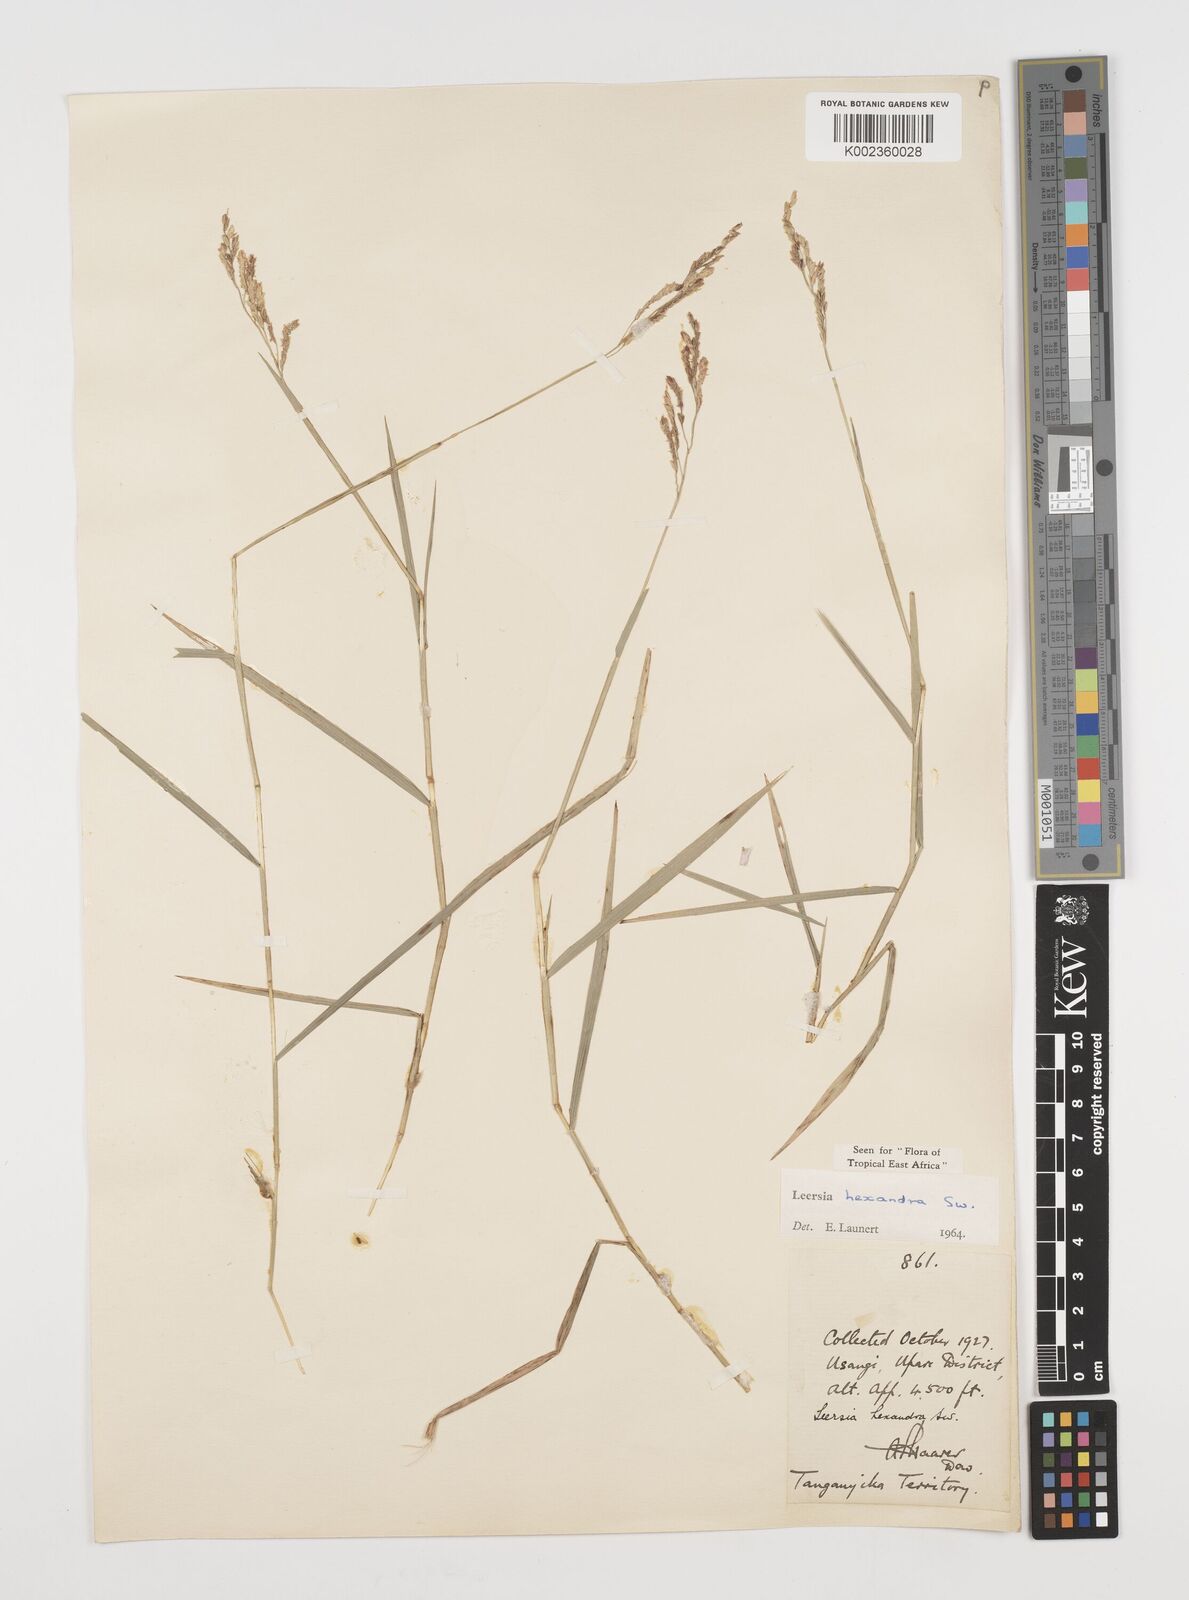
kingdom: Plantae
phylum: Tracheophyta
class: Liliopsida
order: Poales
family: Poaceae
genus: Leersia
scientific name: Leersia hexandra
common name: Southern cut grass
